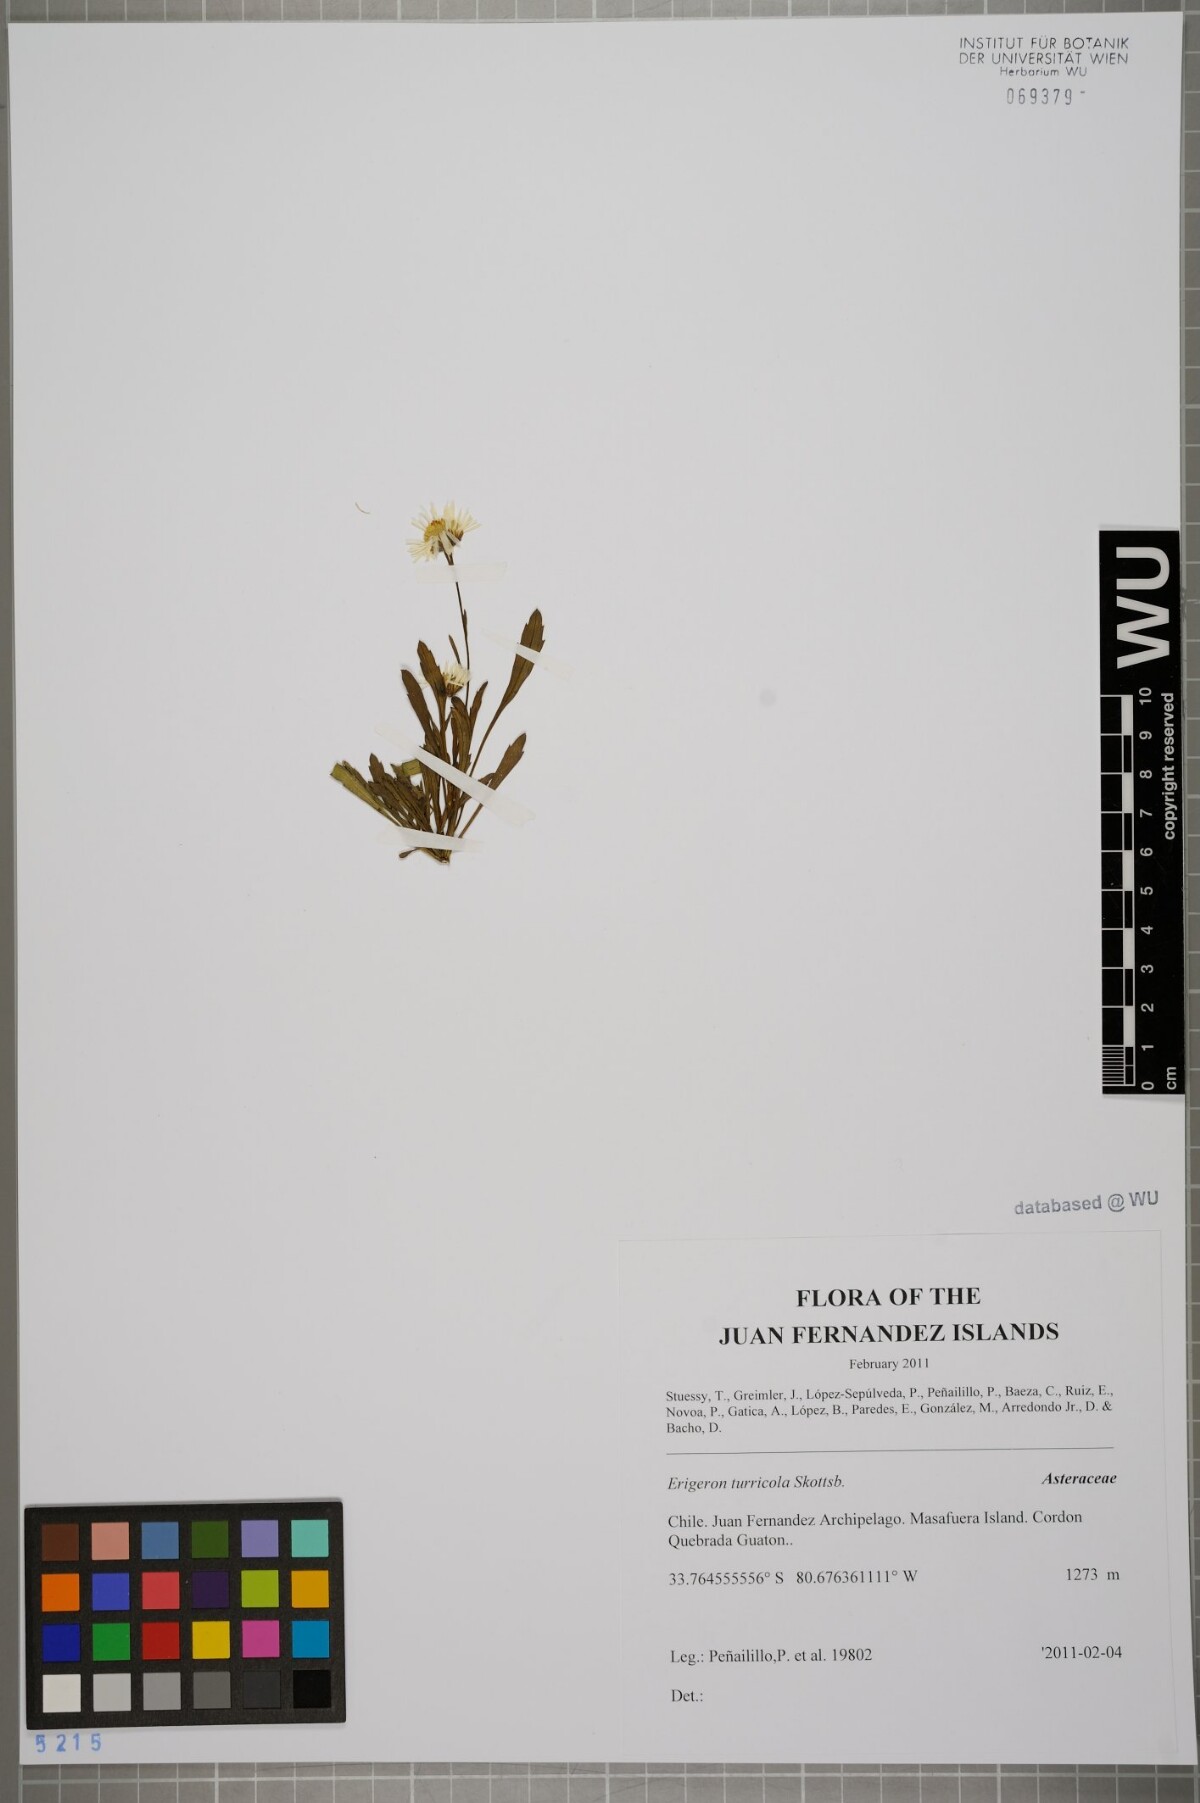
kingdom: Plantae
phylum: Tracheophyta
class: Magnoliopsida
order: Asterales
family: Asteraceae
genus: Erigeron
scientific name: Erigeron ingae
